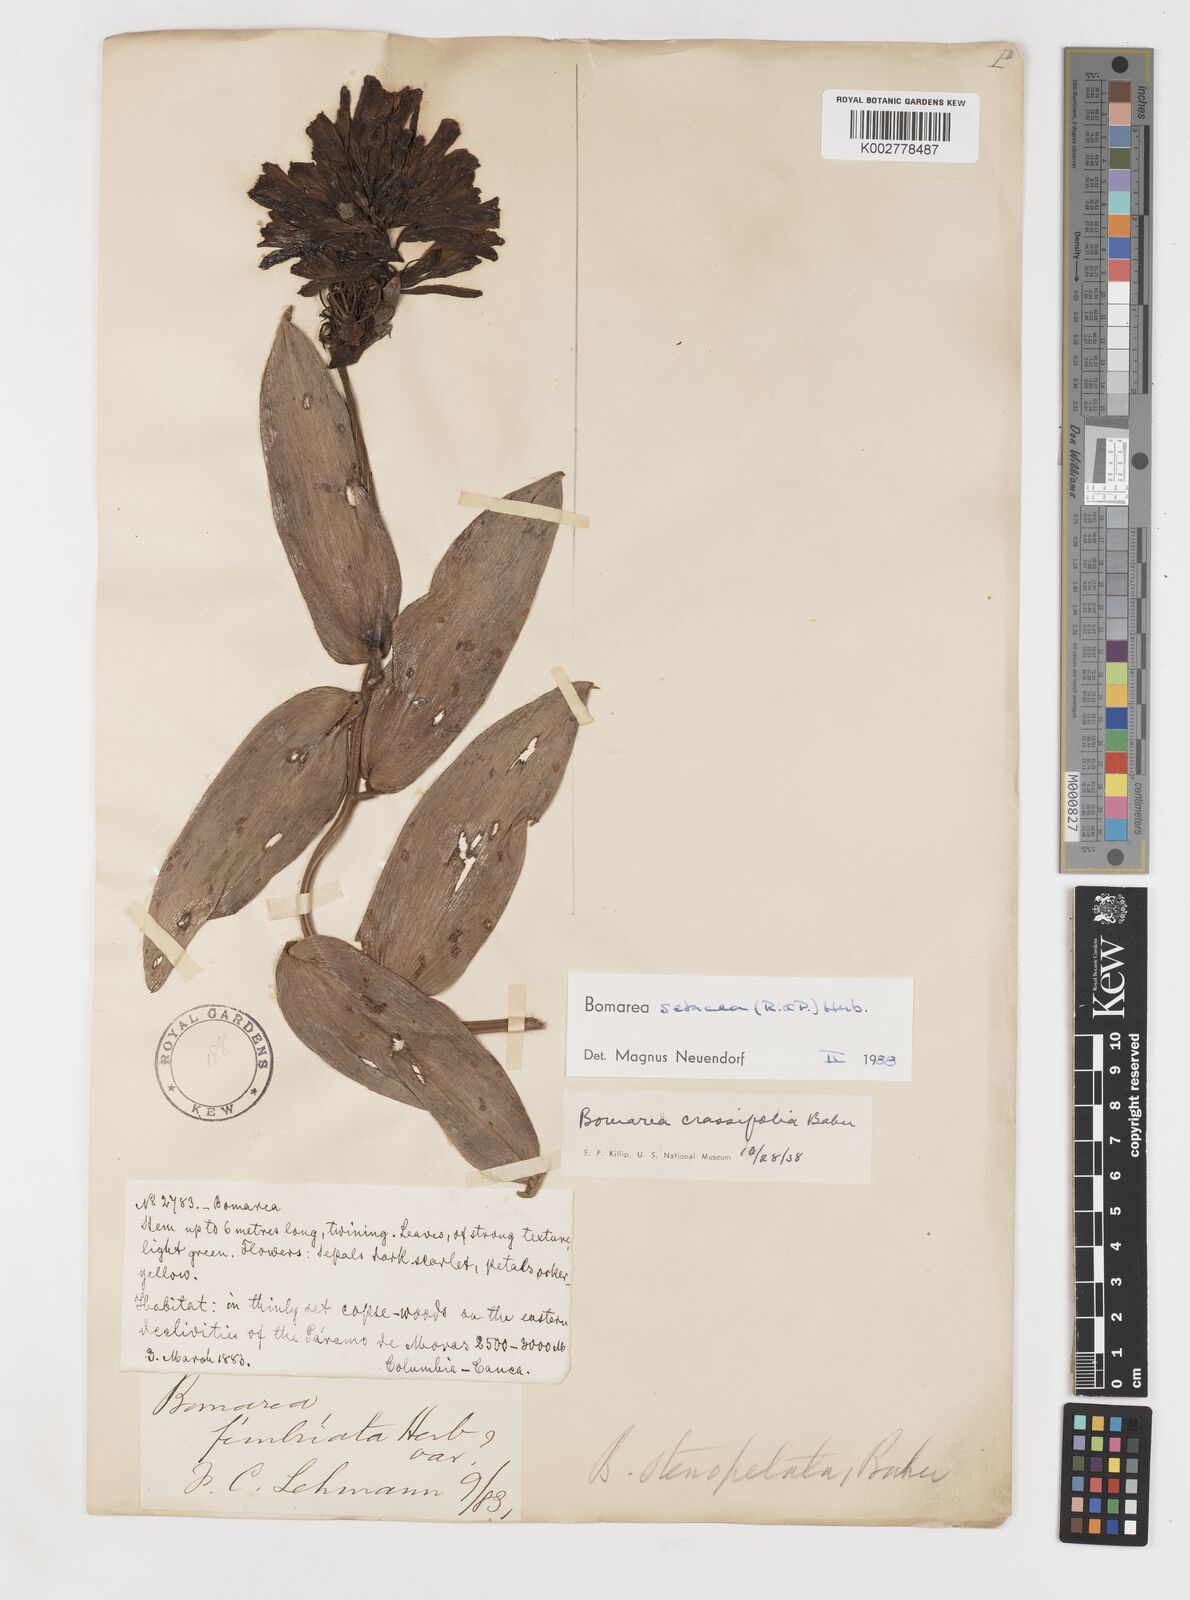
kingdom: Plantae
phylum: Tracheophyta
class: Liliopsida
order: Liliales
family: Alstroemeriaceae
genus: Bomarea
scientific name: Bomarea setacea
